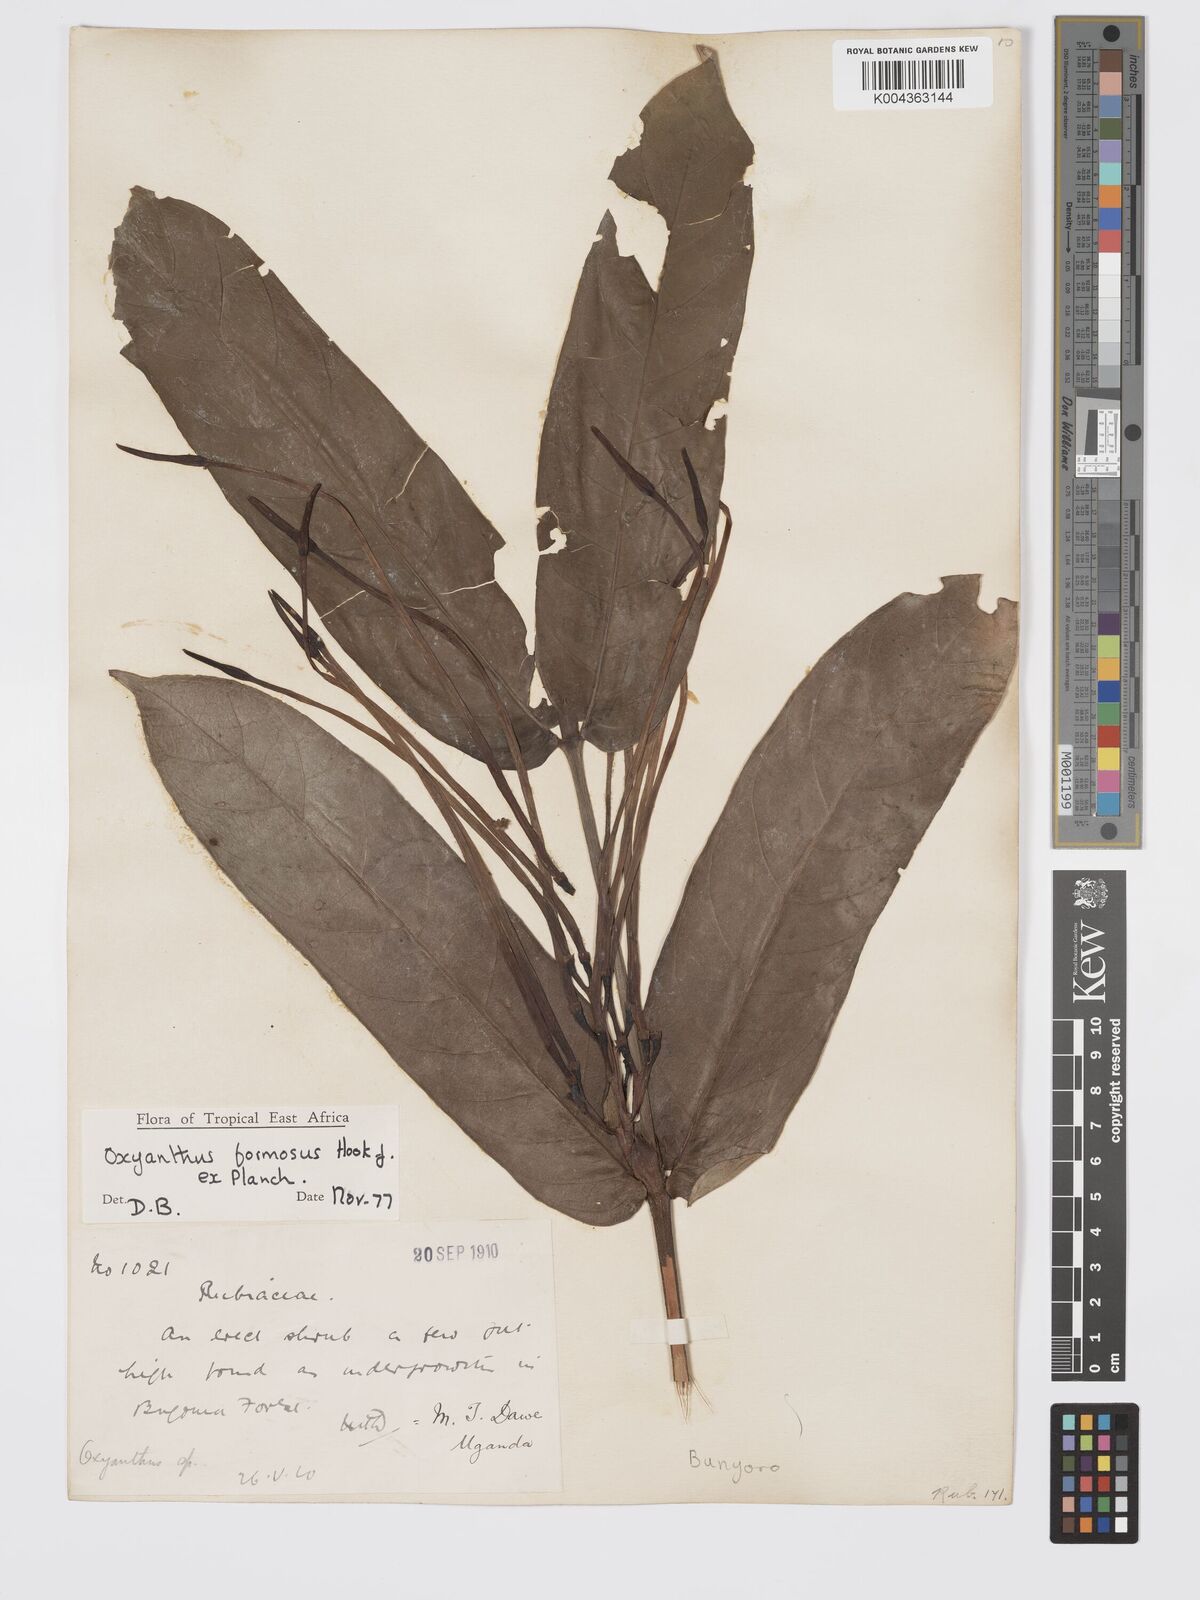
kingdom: Plantae
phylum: Tracheophyta
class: Magnoliopsida
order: Gentianales
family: Rubiaceae
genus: Oxyanthus
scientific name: Oxyanthus formosus
